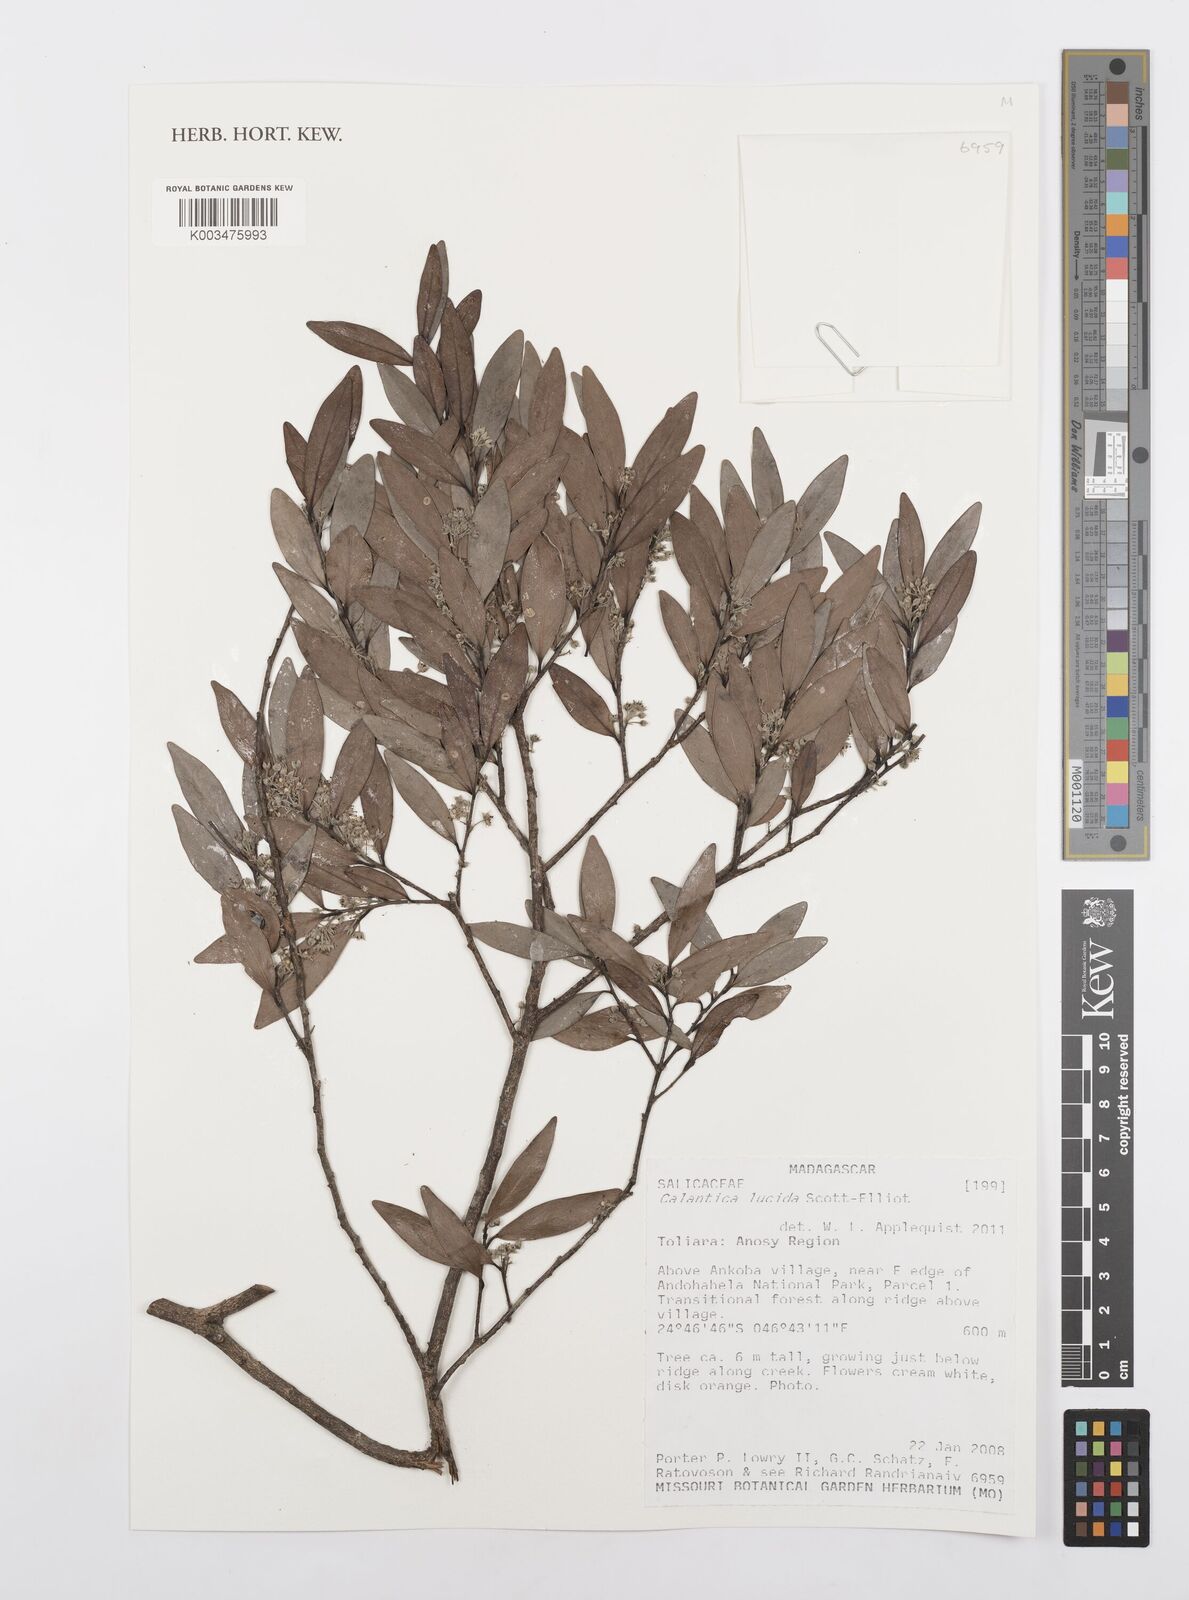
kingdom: Plantae
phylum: Tracheophyta
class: Magnoliopsida
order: Malpighiales
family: Salicaceae
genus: Calantica
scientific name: Calantica lucida
